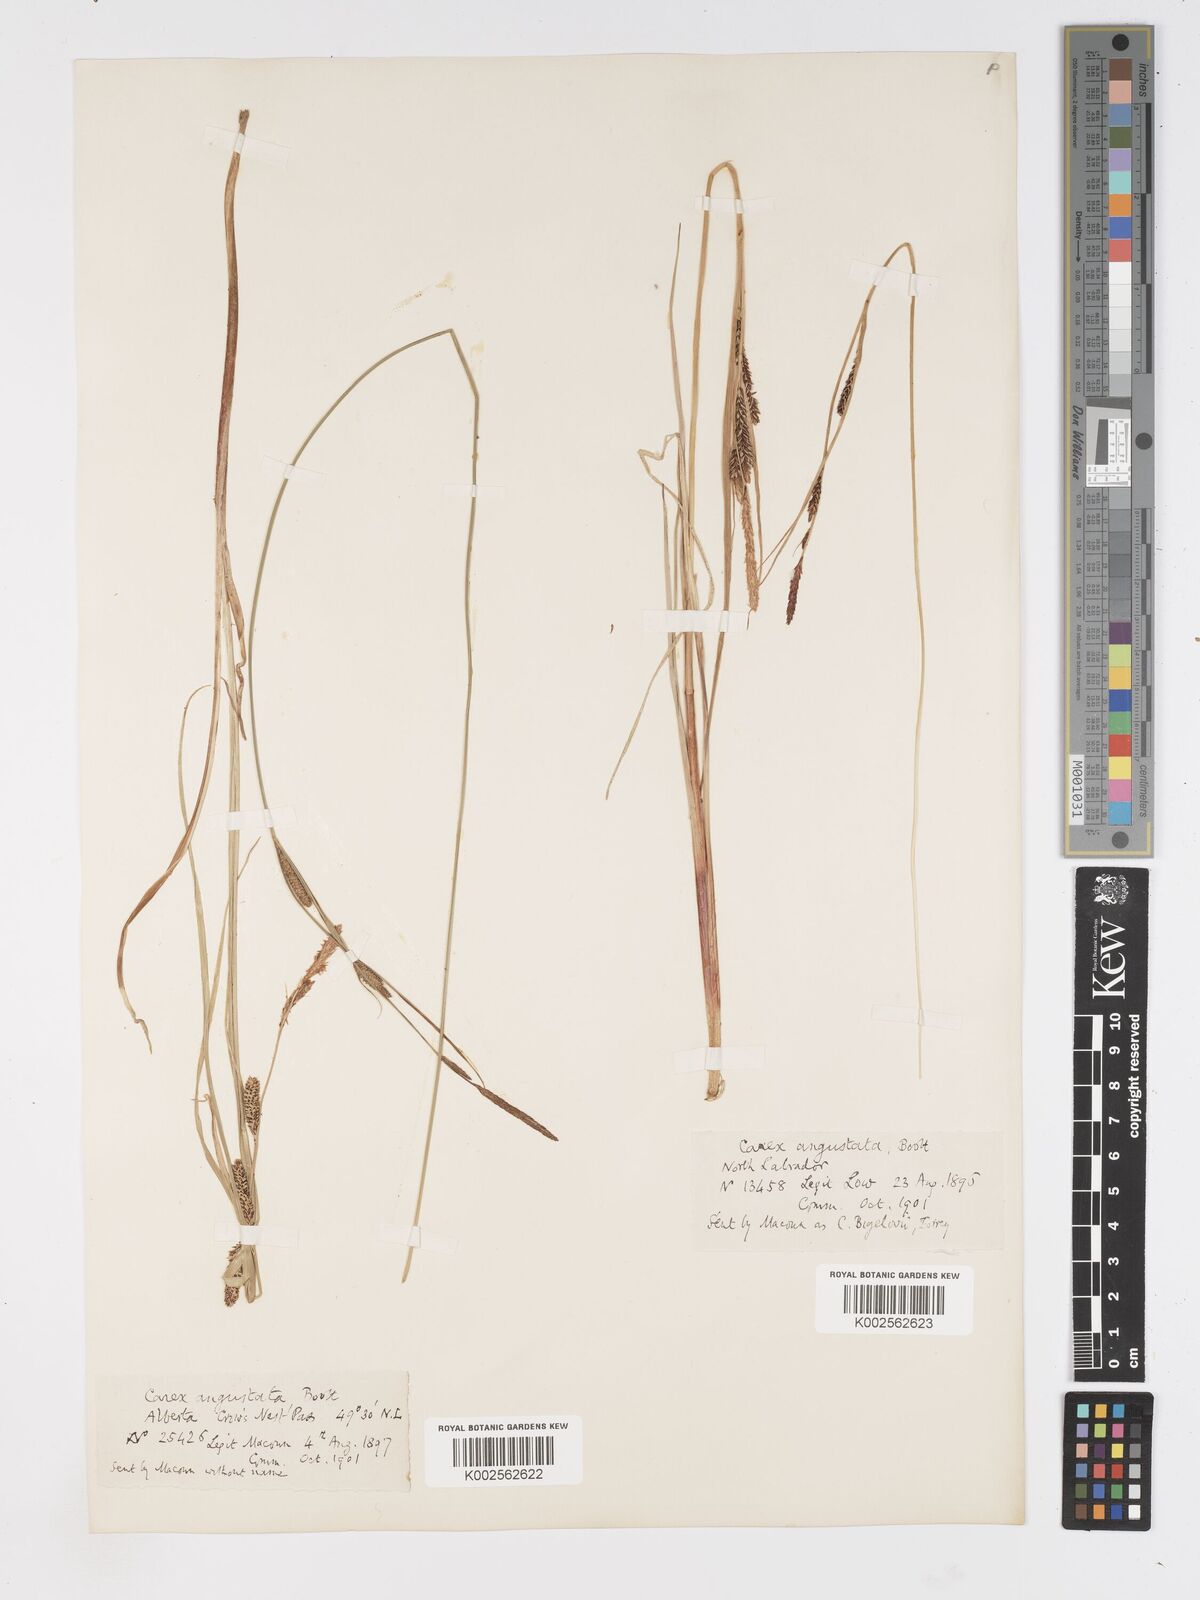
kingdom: Plantae
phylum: Tracheophyta
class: Liliopsida
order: Poales
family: Cyperaceae
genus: Carex
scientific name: Carex stricta
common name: Hummock sedge
